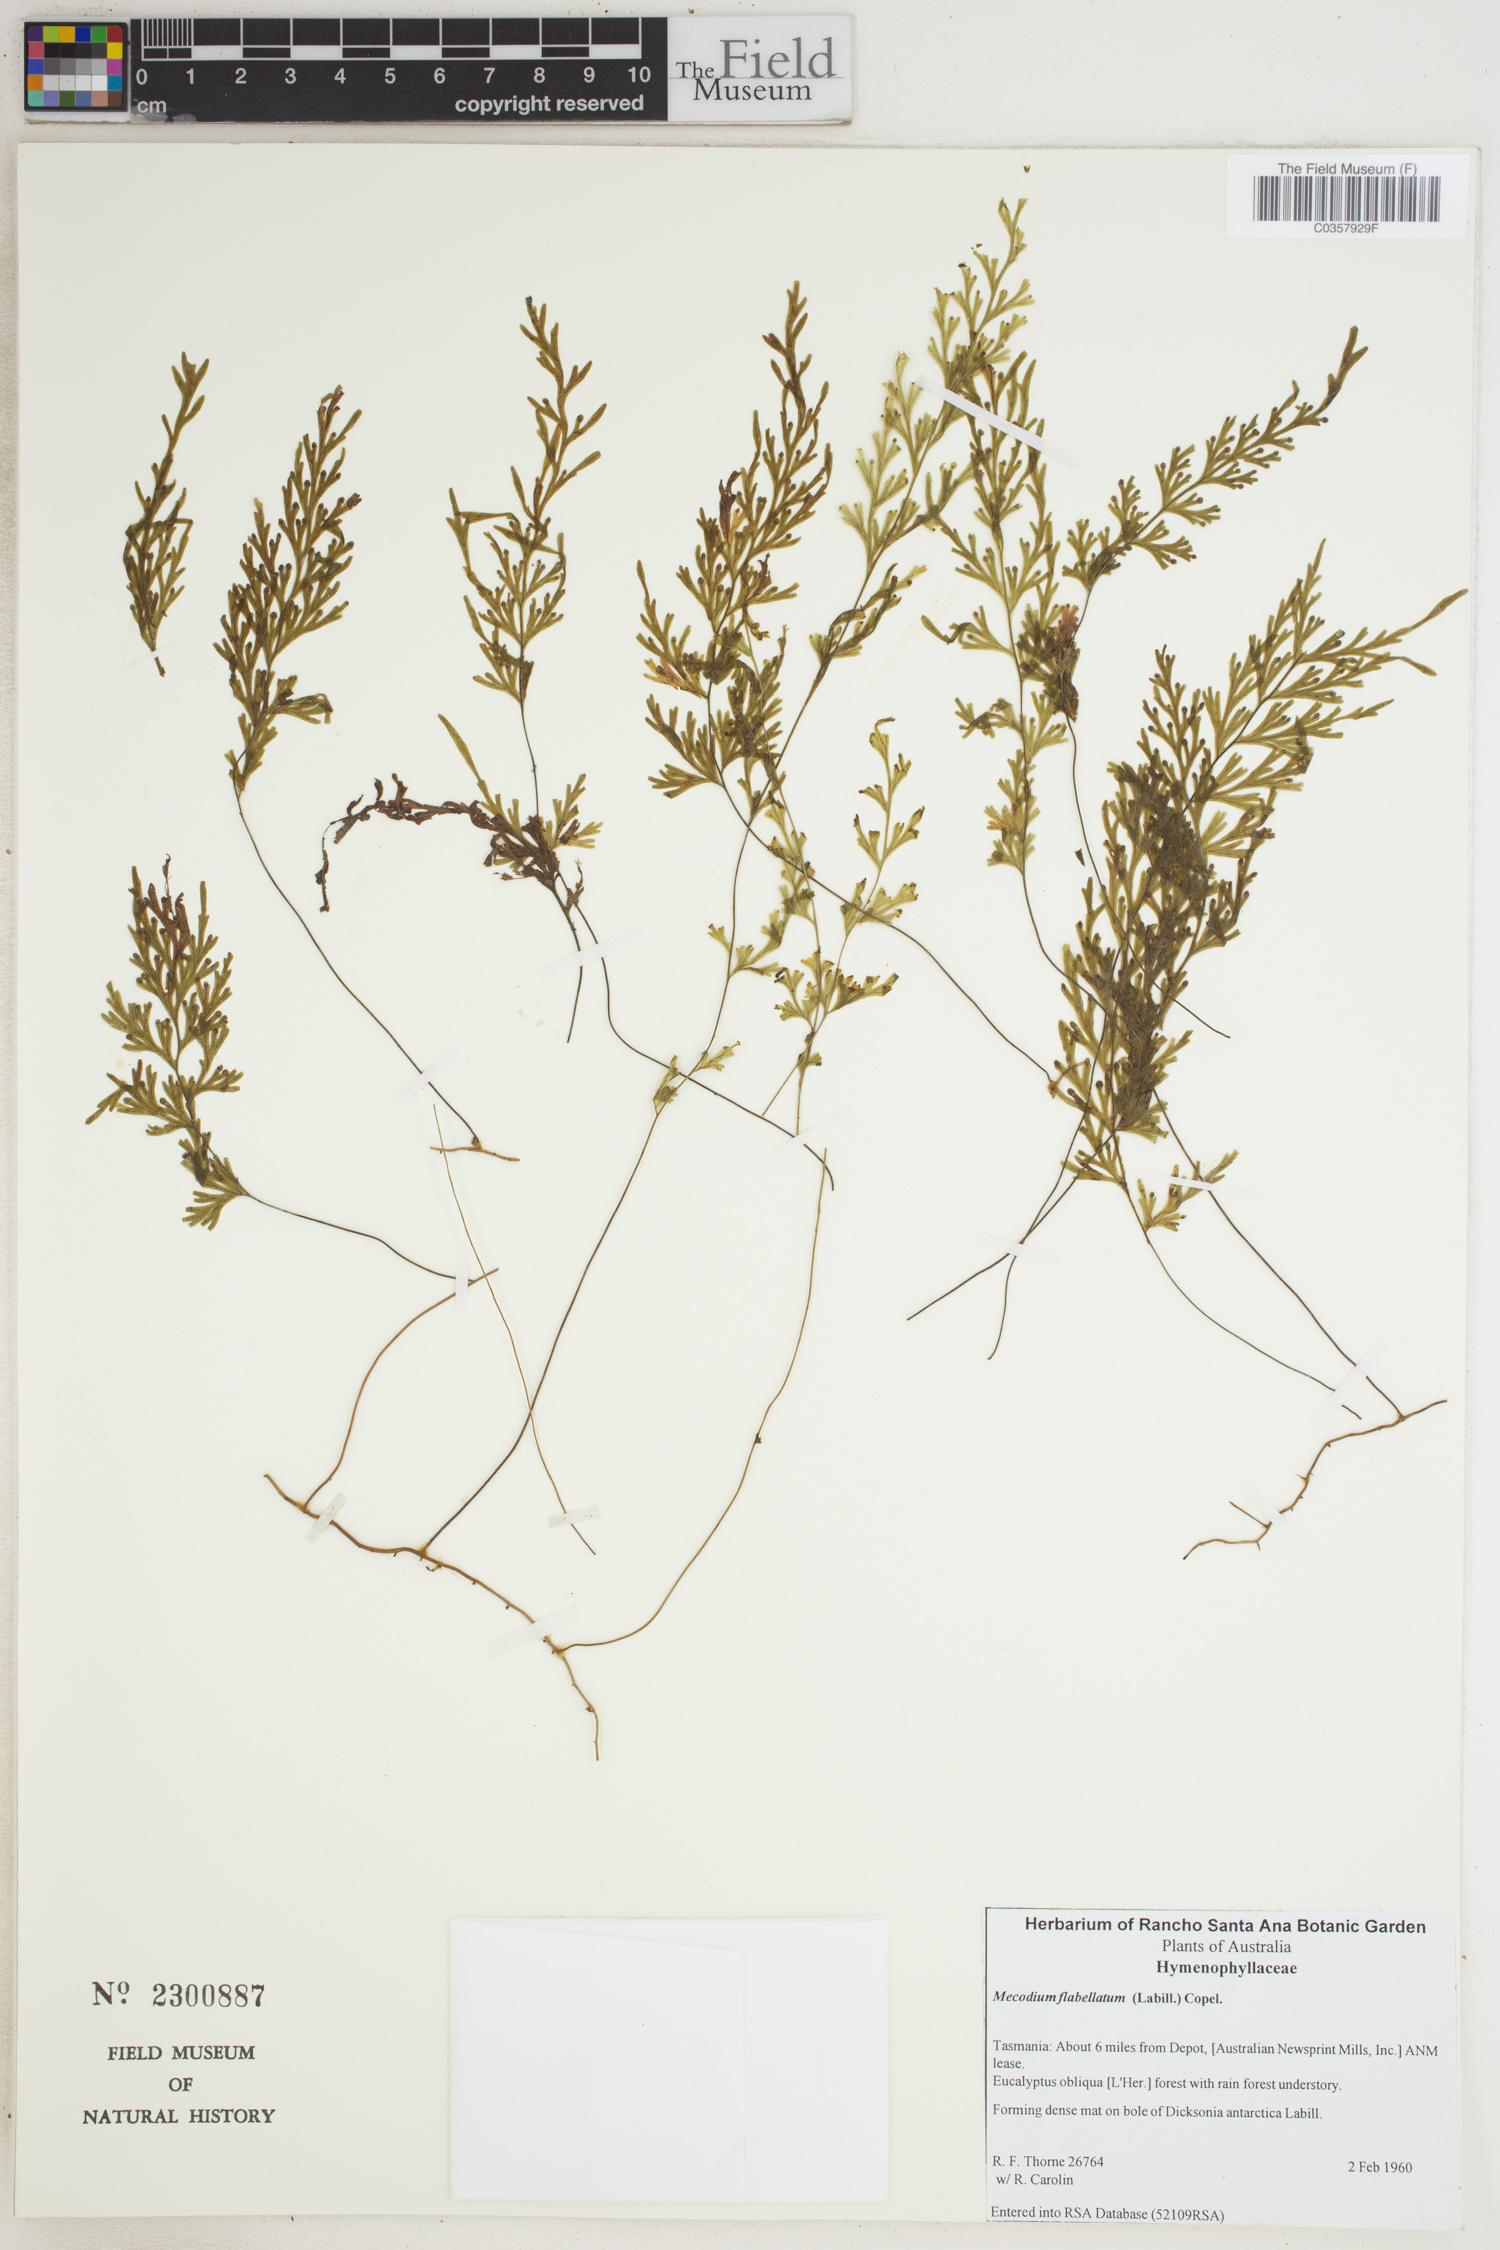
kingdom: Plantae
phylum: Tracheophyta
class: Polypodiopsida
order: Hymenophyllales
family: Hymenophyllaceae
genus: Hymenophyllum
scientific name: Hymenophyllum flabellatum
